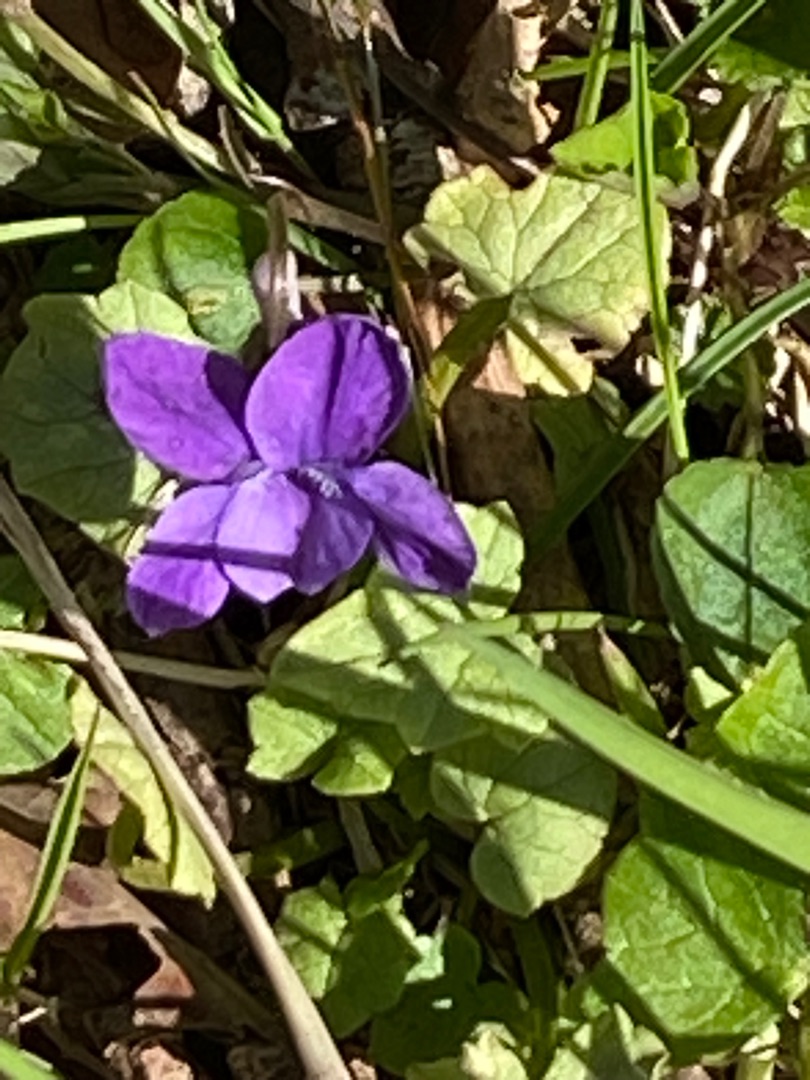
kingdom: Plantae
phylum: Tracheophyta
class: Magnoliopsida
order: Malpighiales
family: Violaceae
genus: Viola
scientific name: Viola
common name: Violslægten
